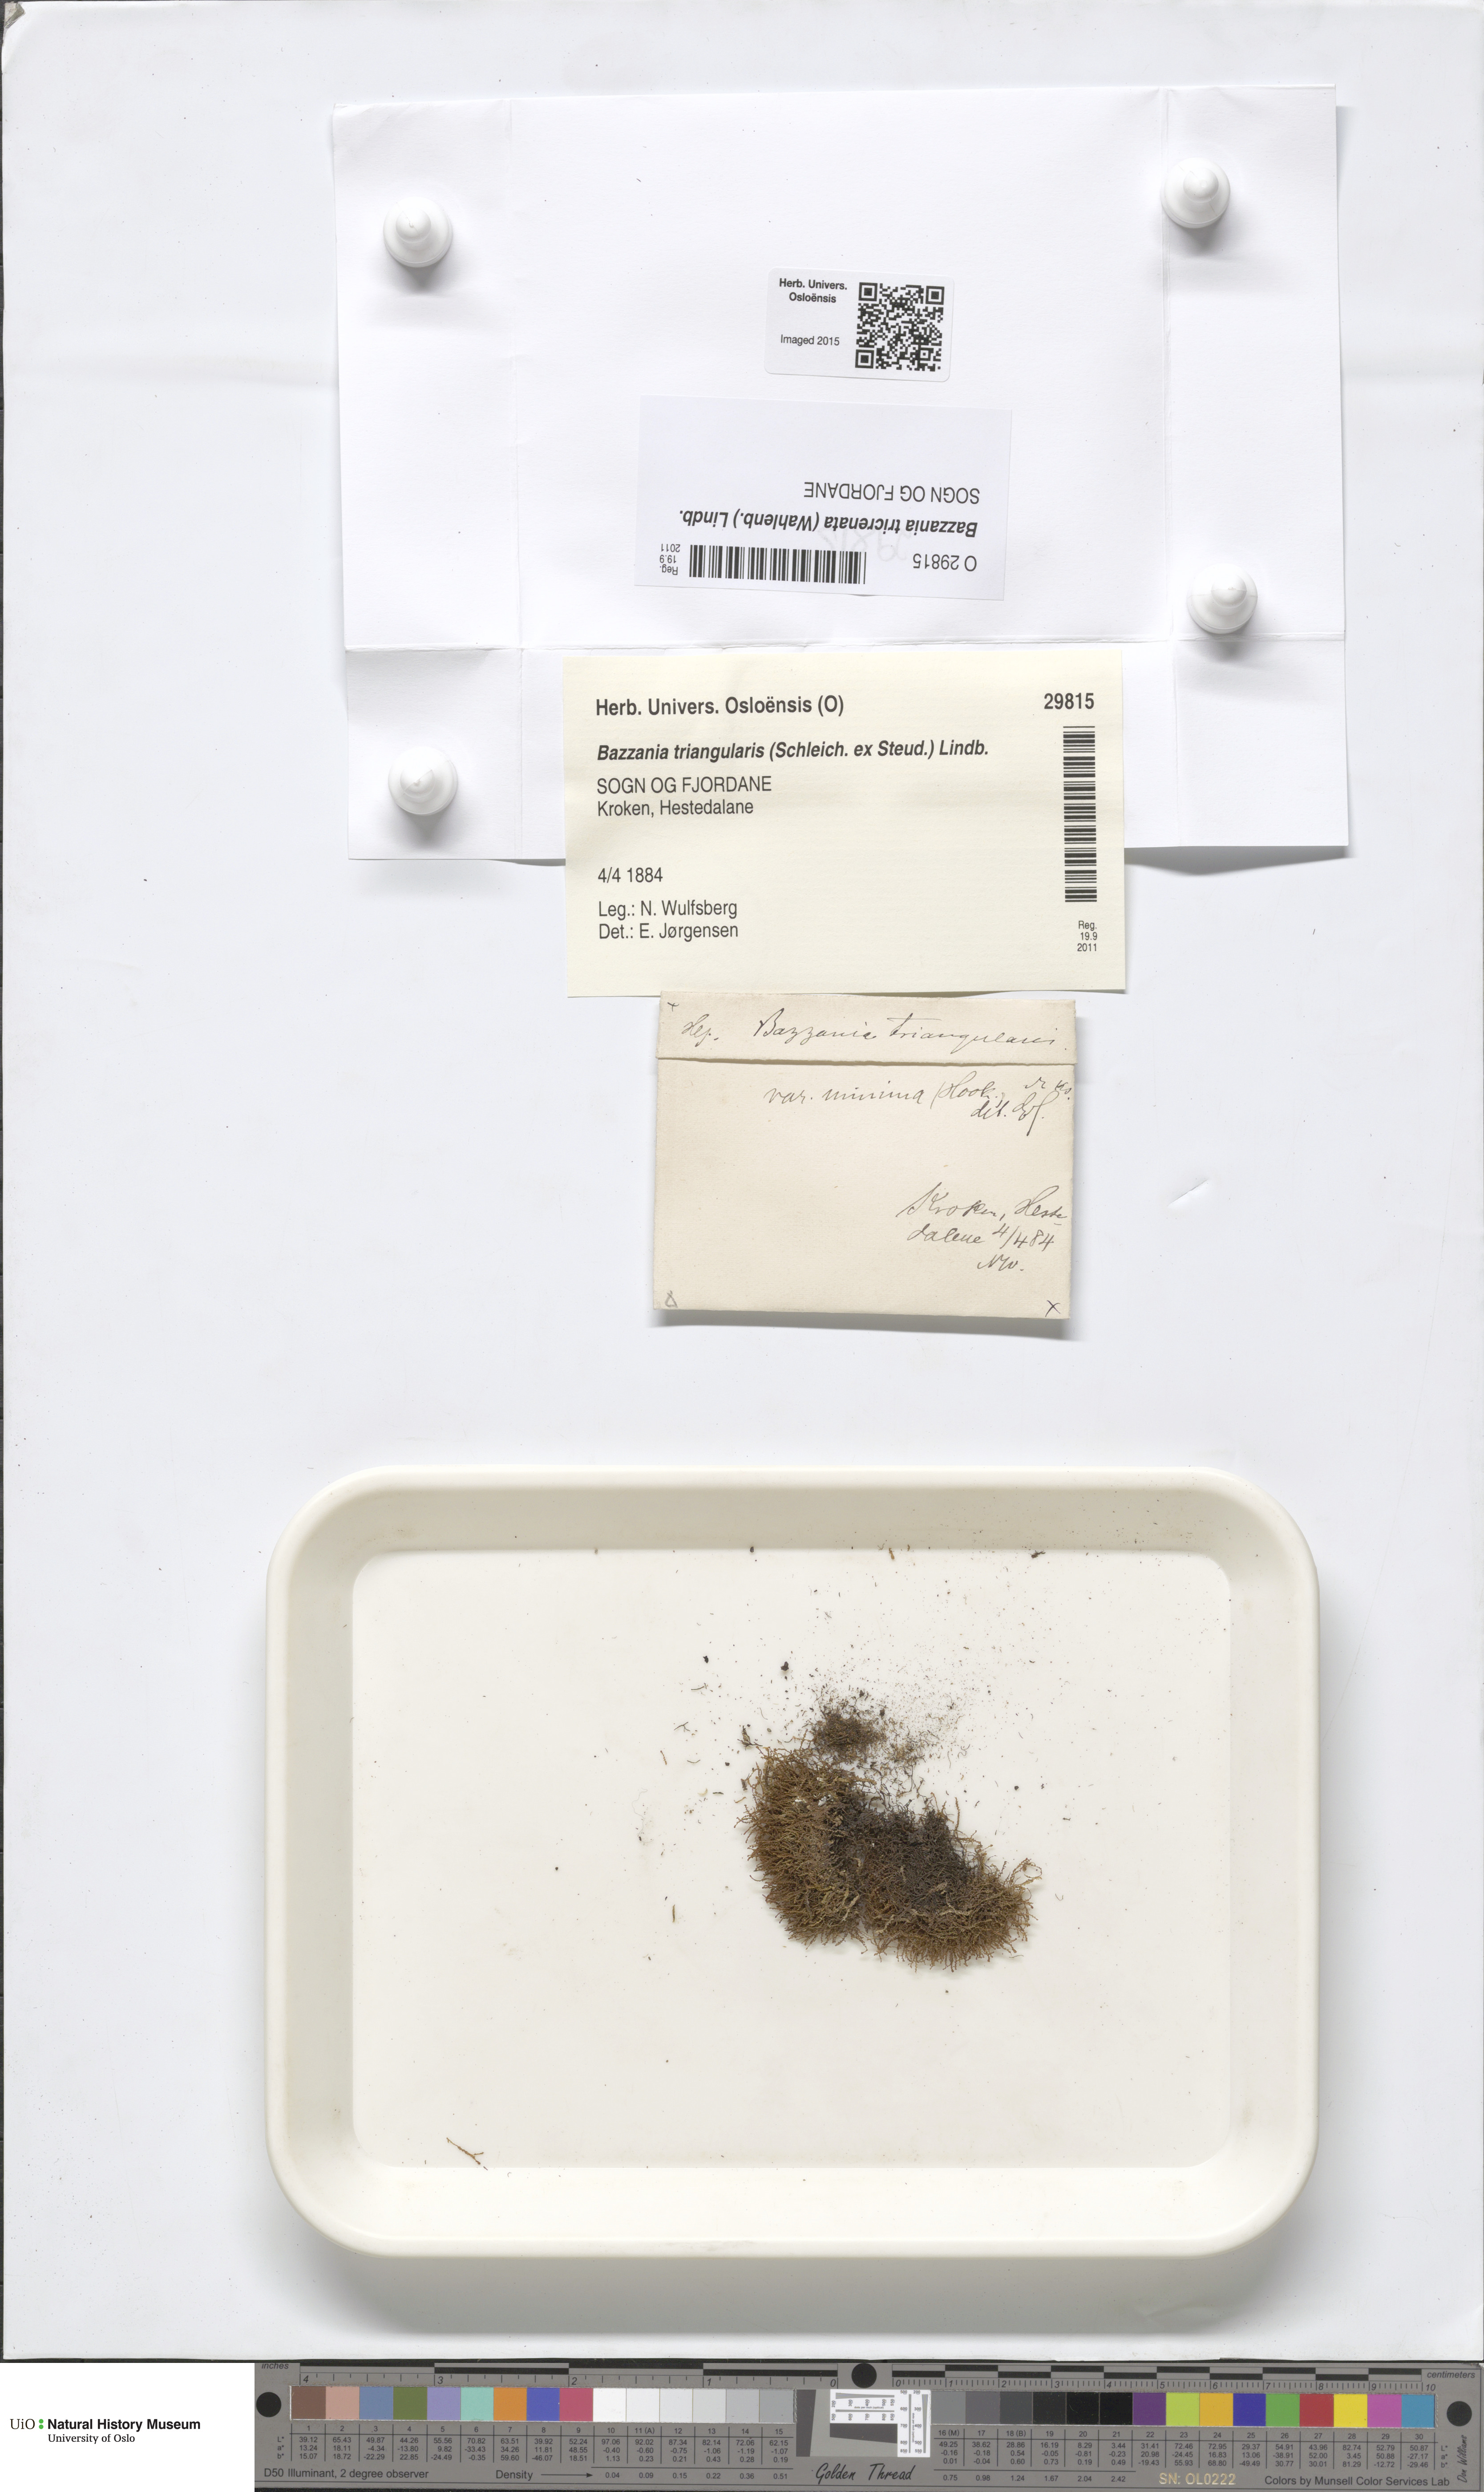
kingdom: Plantae
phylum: Marchantiophyta
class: Jungermanniopsida
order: Jungermanniales
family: Lepidoziaceae
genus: Bazzania
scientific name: Bazzania tricrenata
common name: Lesser whipwort
